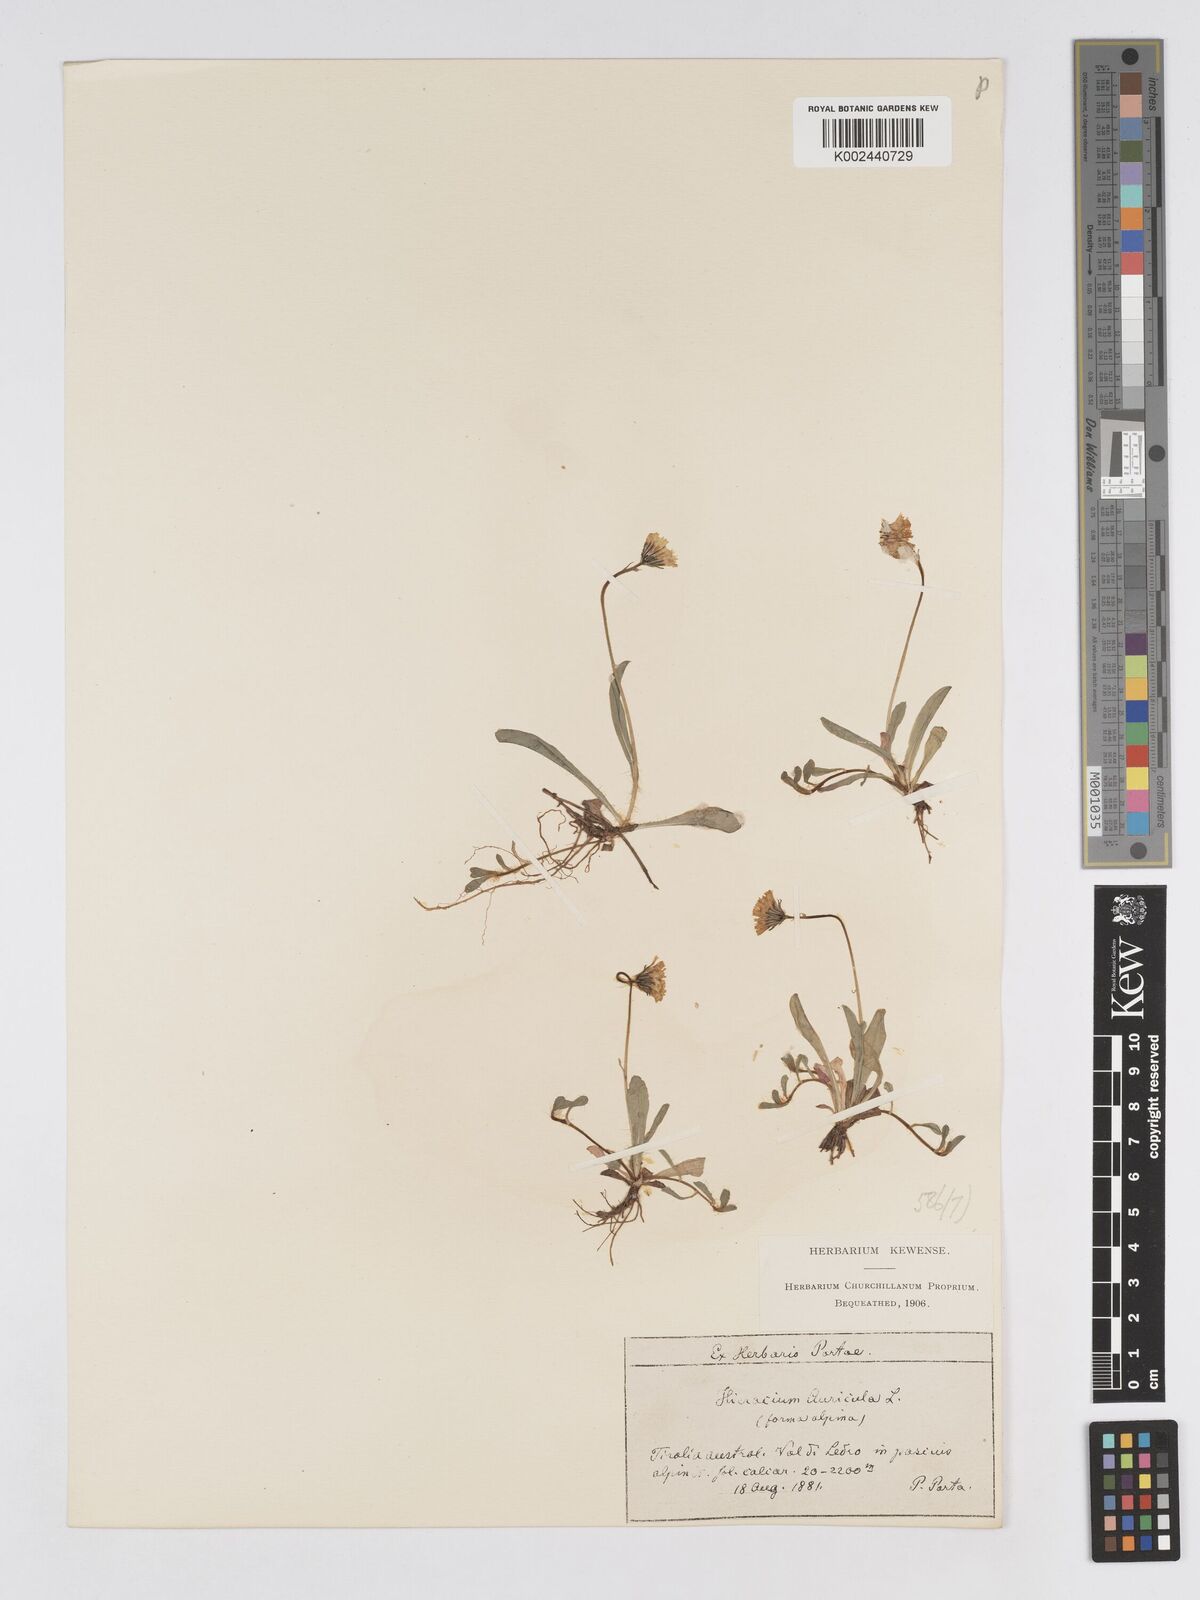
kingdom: Plantae
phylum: Tracheophyta
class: Magnoliopsida
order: Asterales
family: Asteraceae
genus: Pilosella
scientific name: Pilosella floribunda
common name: Glaucous hawkweed
